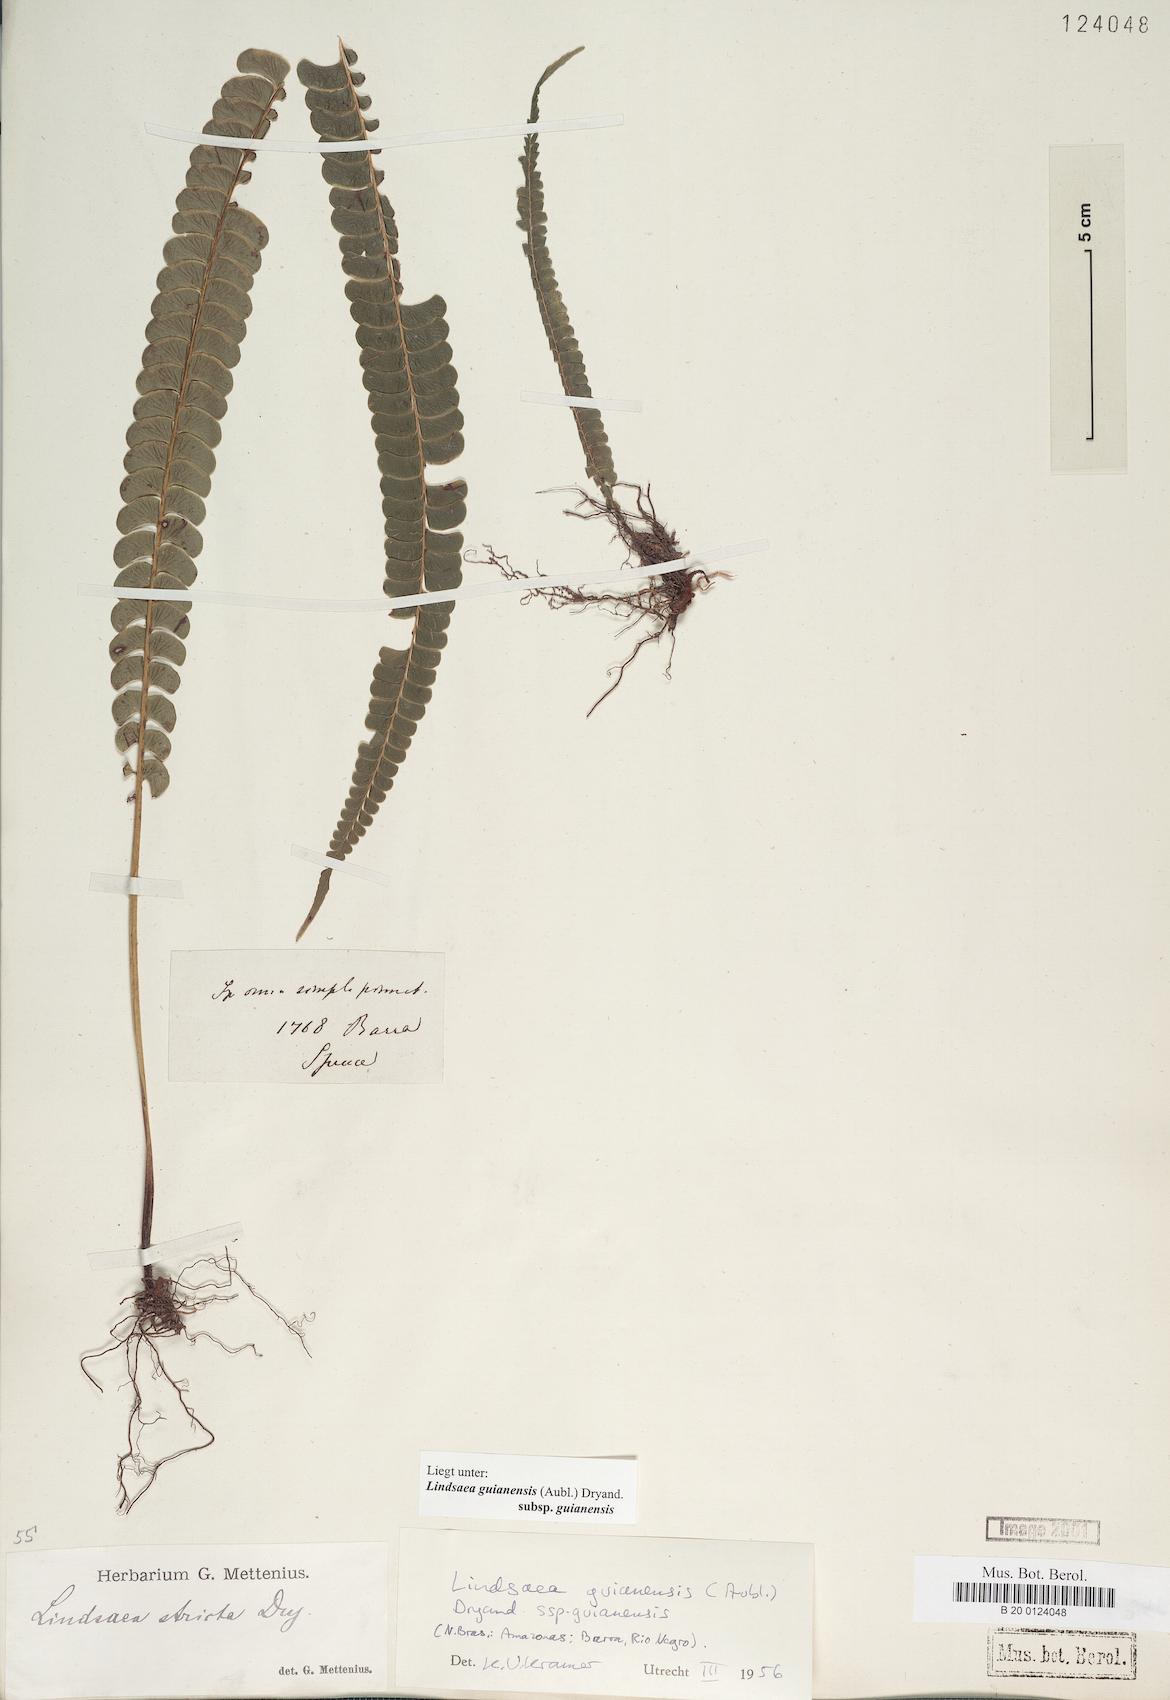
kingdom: Plantae
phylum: Tracheophyta
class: Polypodiopsida
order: Polypodiales
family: Lindsaeaceae
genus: Lindsaea
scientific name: Lindsaea guianensis
